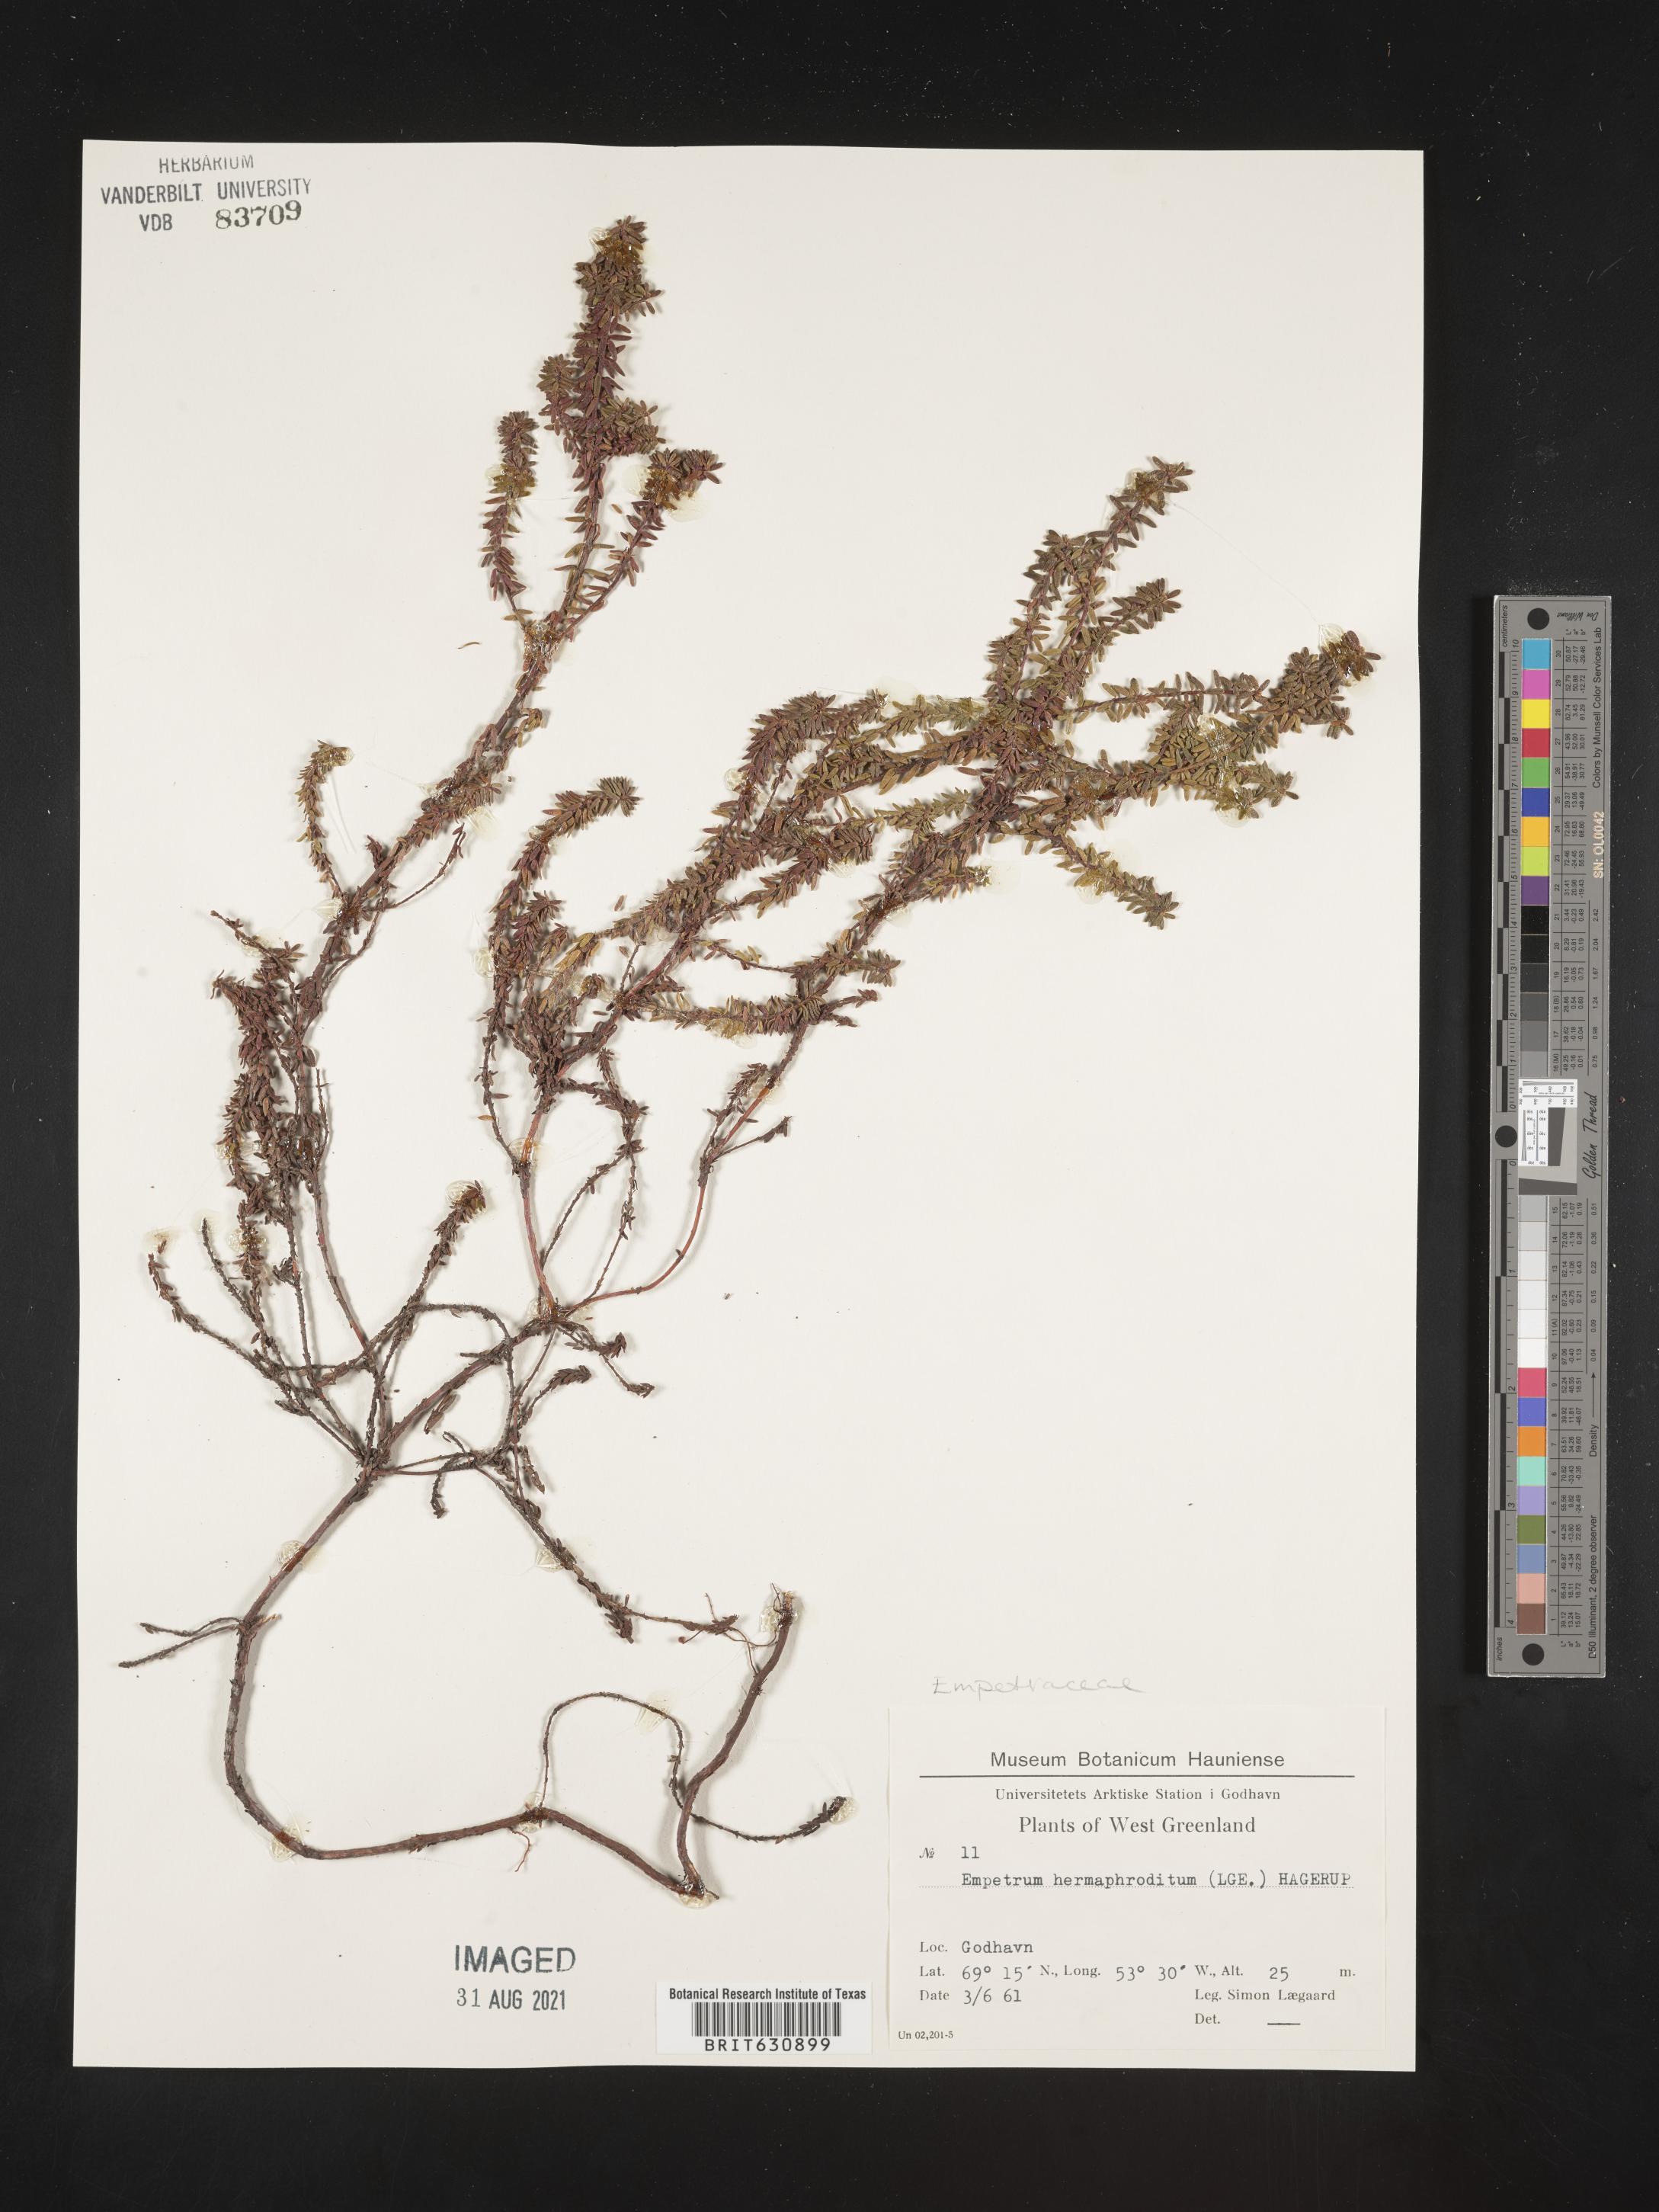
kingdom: Plantae
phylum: Tracheophyta
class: Magnoliopsida
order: Ericales
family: Ericaceae
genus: Empetrum
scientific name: Empetrum
